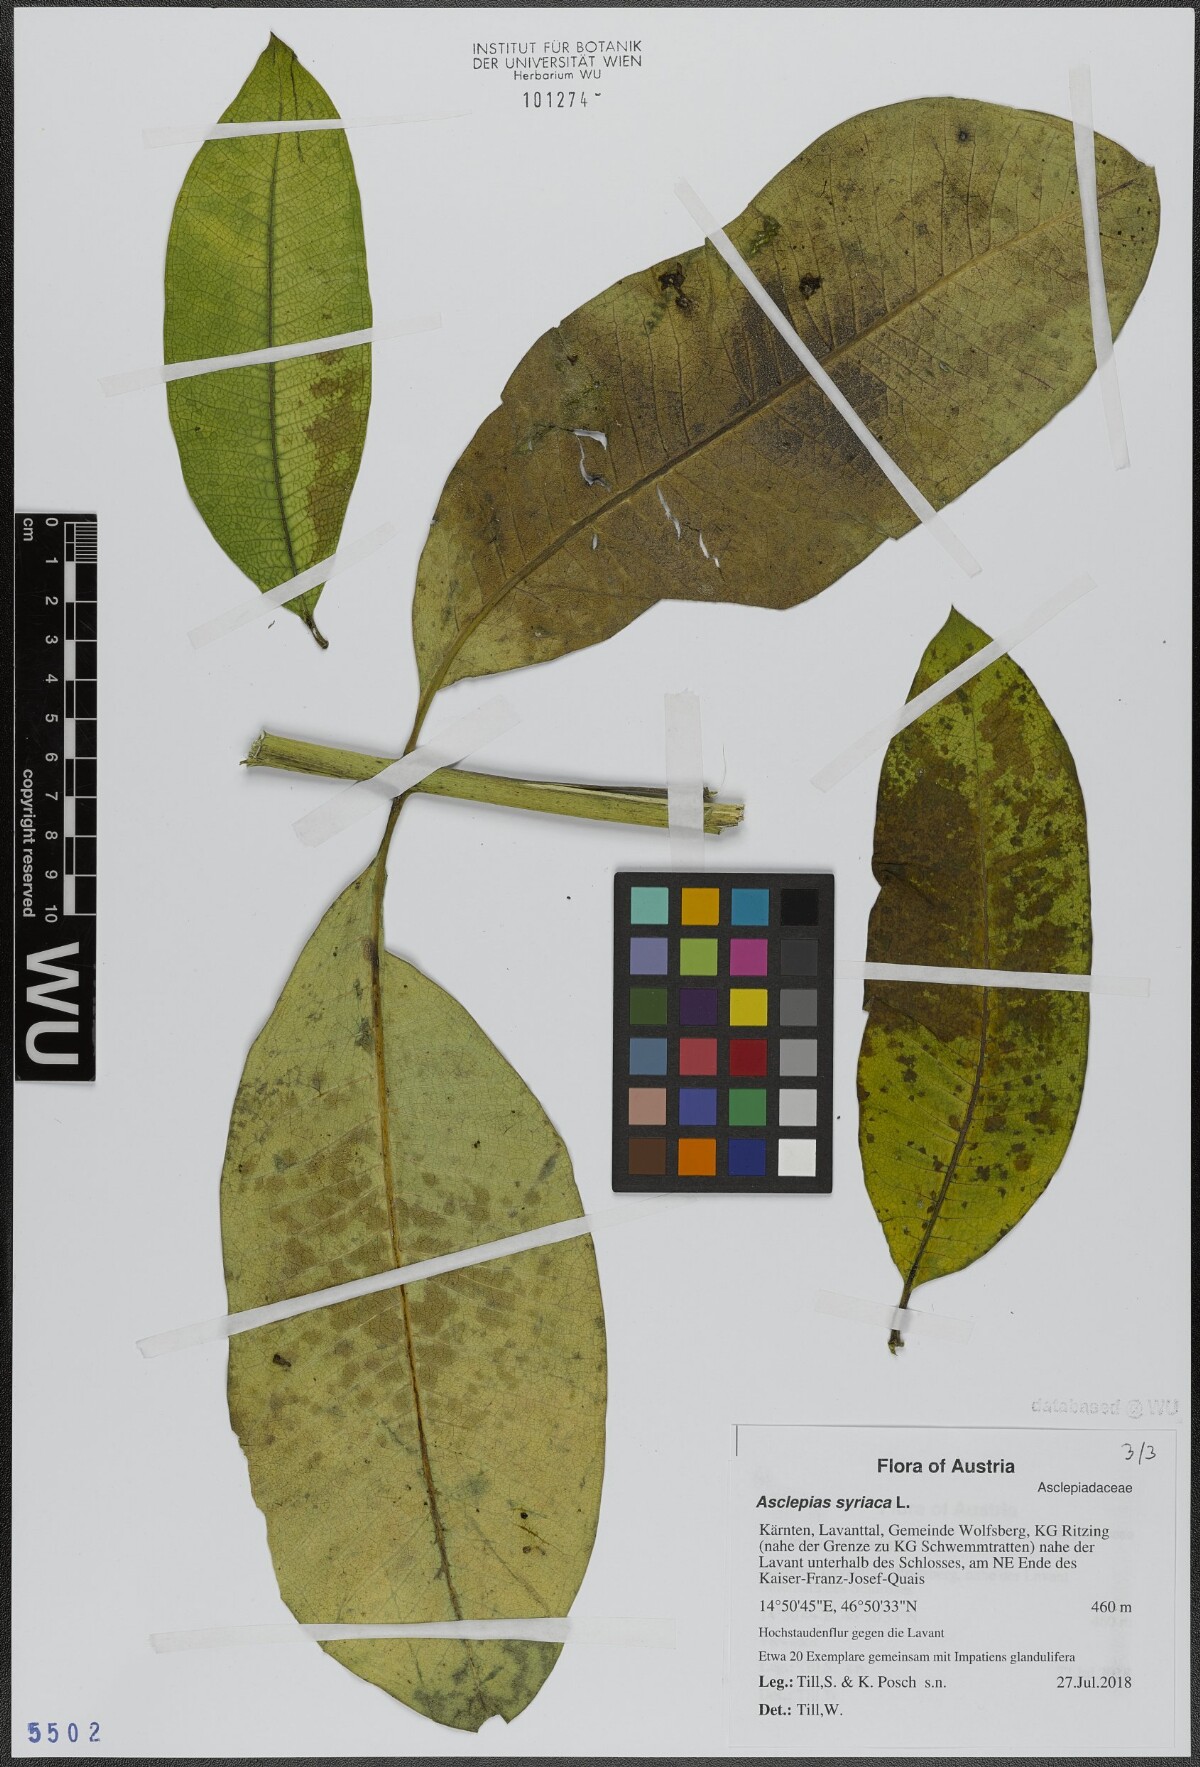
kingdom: Plantae
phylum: Tracheophyta
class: Magnoliopsida
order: Gentianales
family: Apocynaceae
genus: Asclepias
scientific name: Asclepias syriaca
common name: Common milkweed
